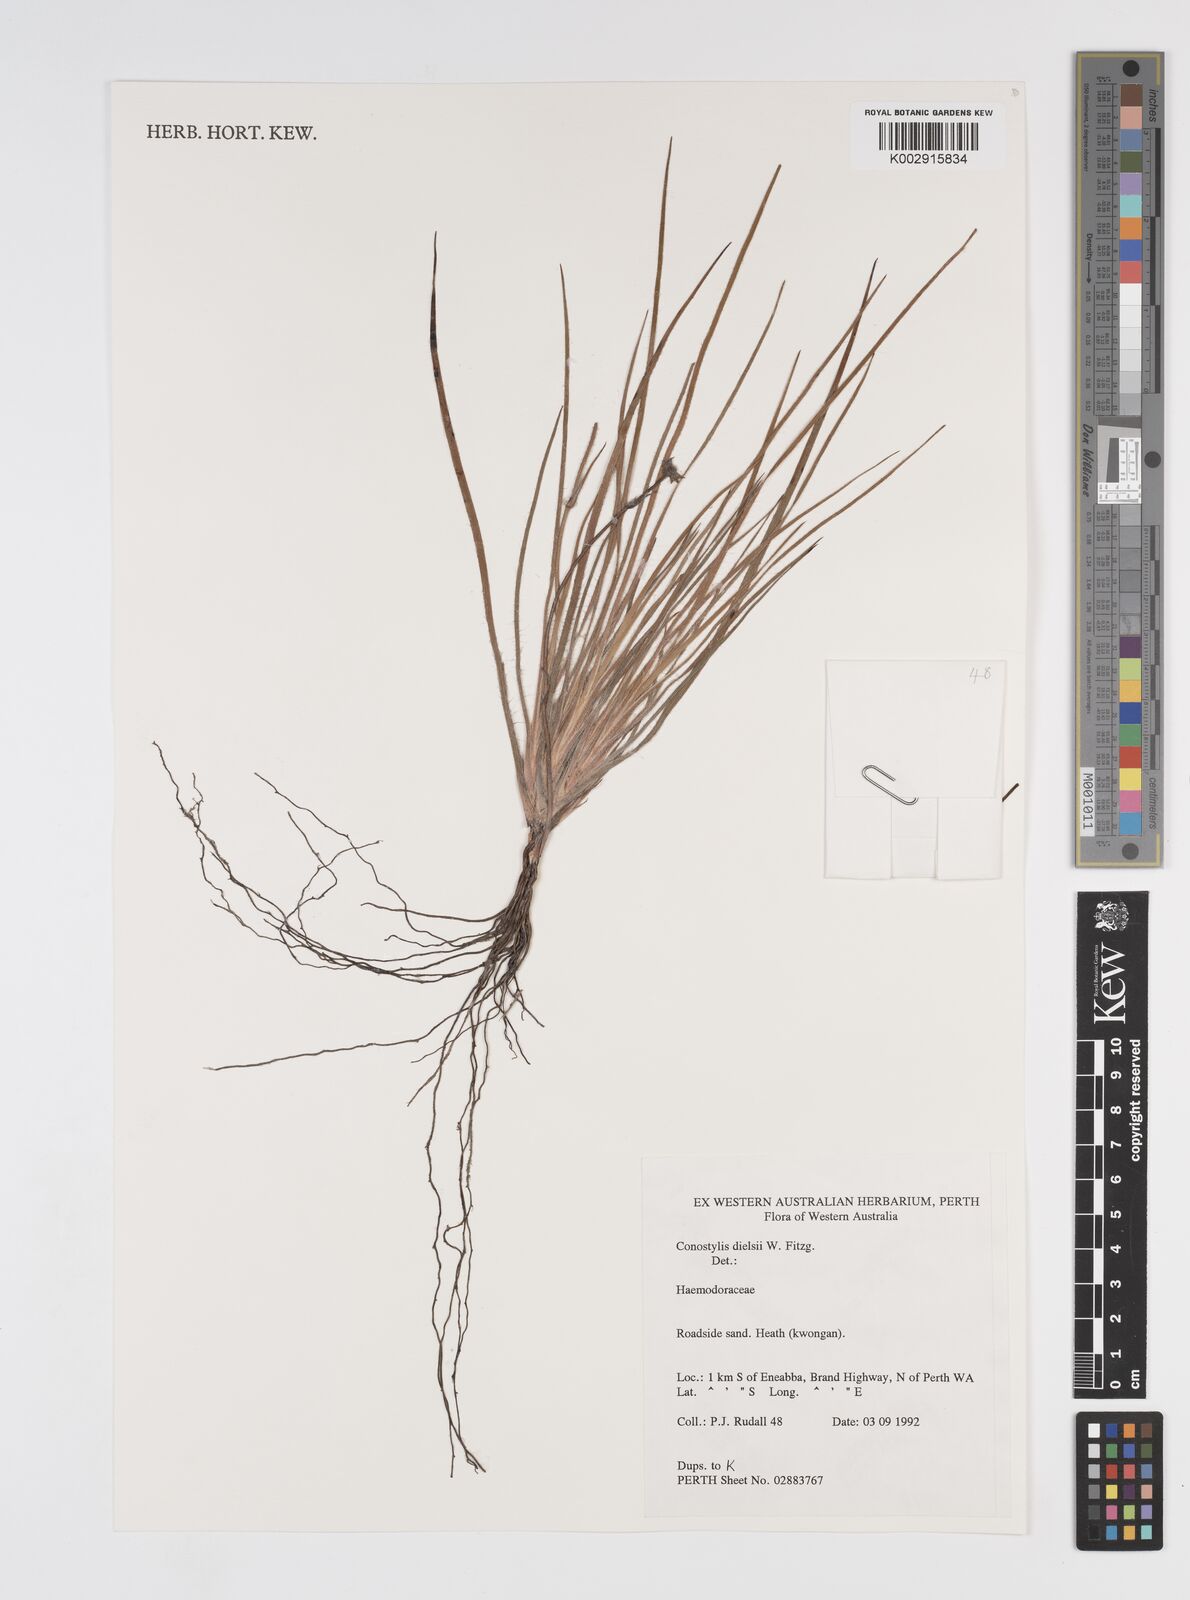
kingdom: Plantae
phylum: Tracheophyta
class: Liliopsida
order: Commelinales
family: Haemodoraceae
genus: Conostylis
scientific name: Conostylis dielsii
